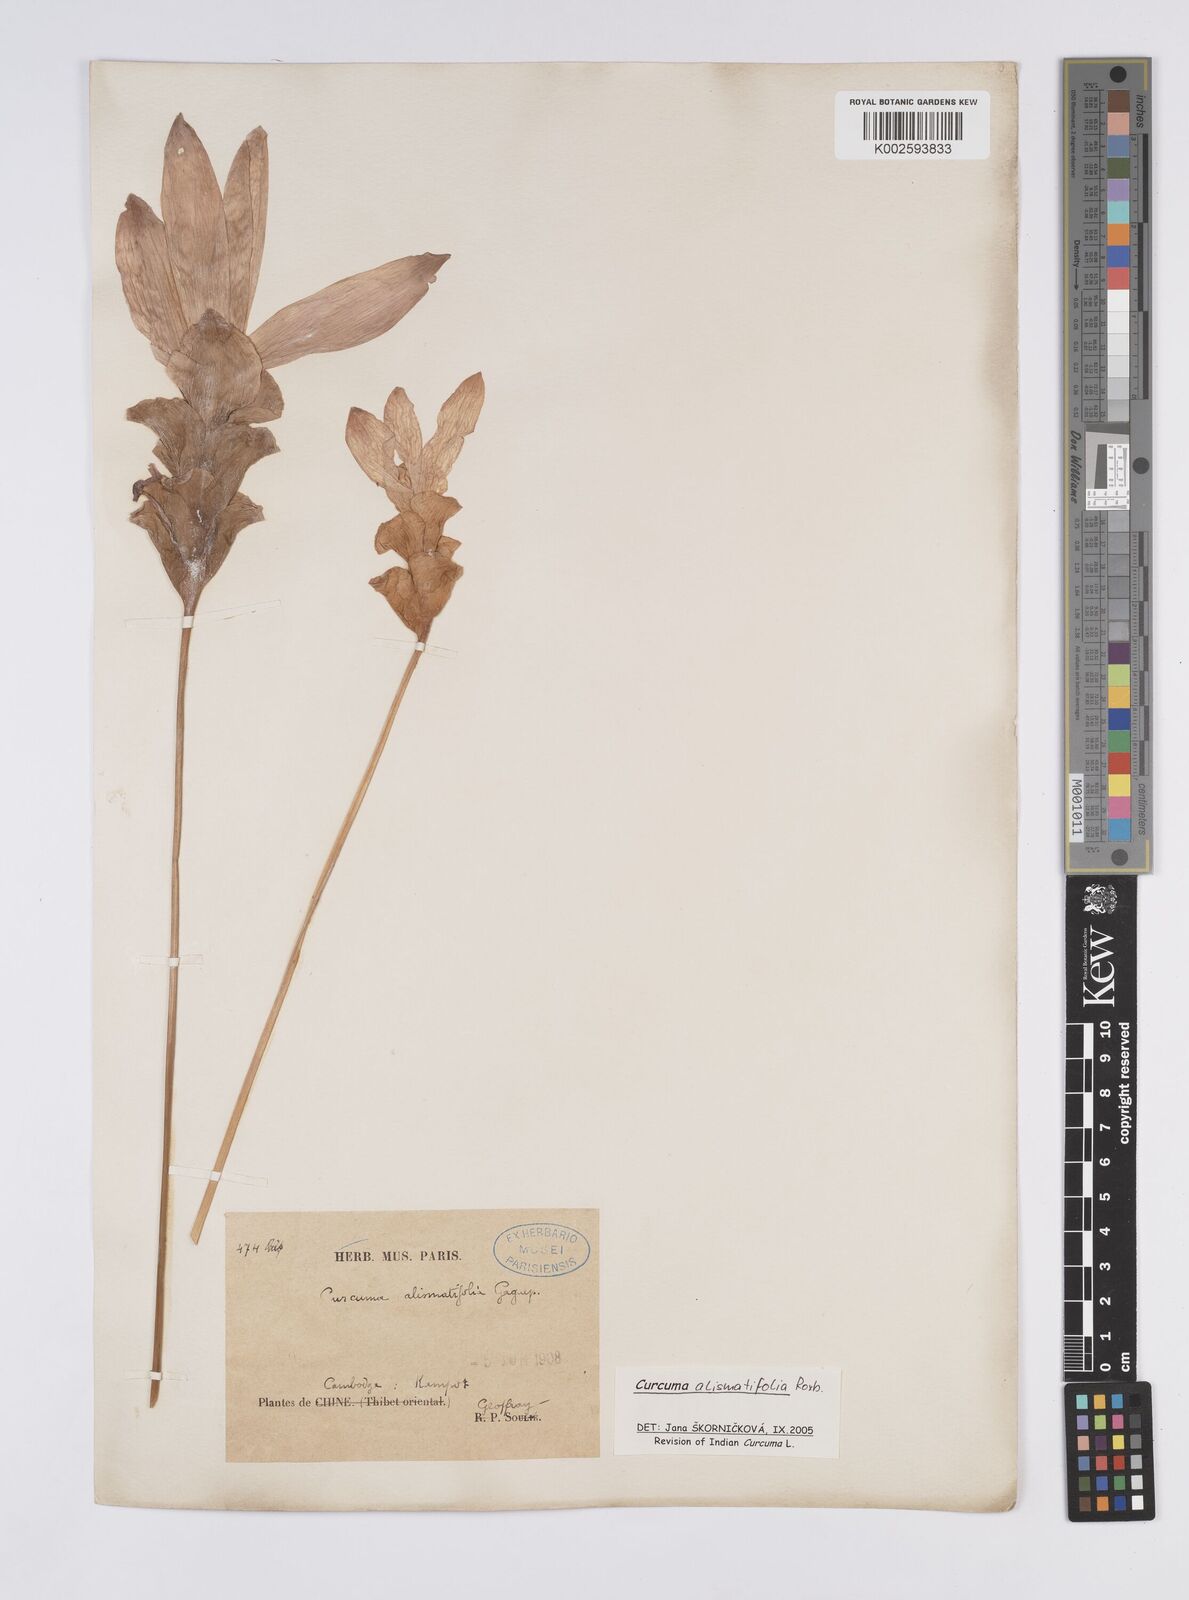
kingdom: Plantae
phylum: Tracheophyta
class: Liliopsida
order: Zingiberales
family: Zingiberaceae
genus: Curcuma
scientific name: Curcuma alismatifolia
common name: Siam tulip
